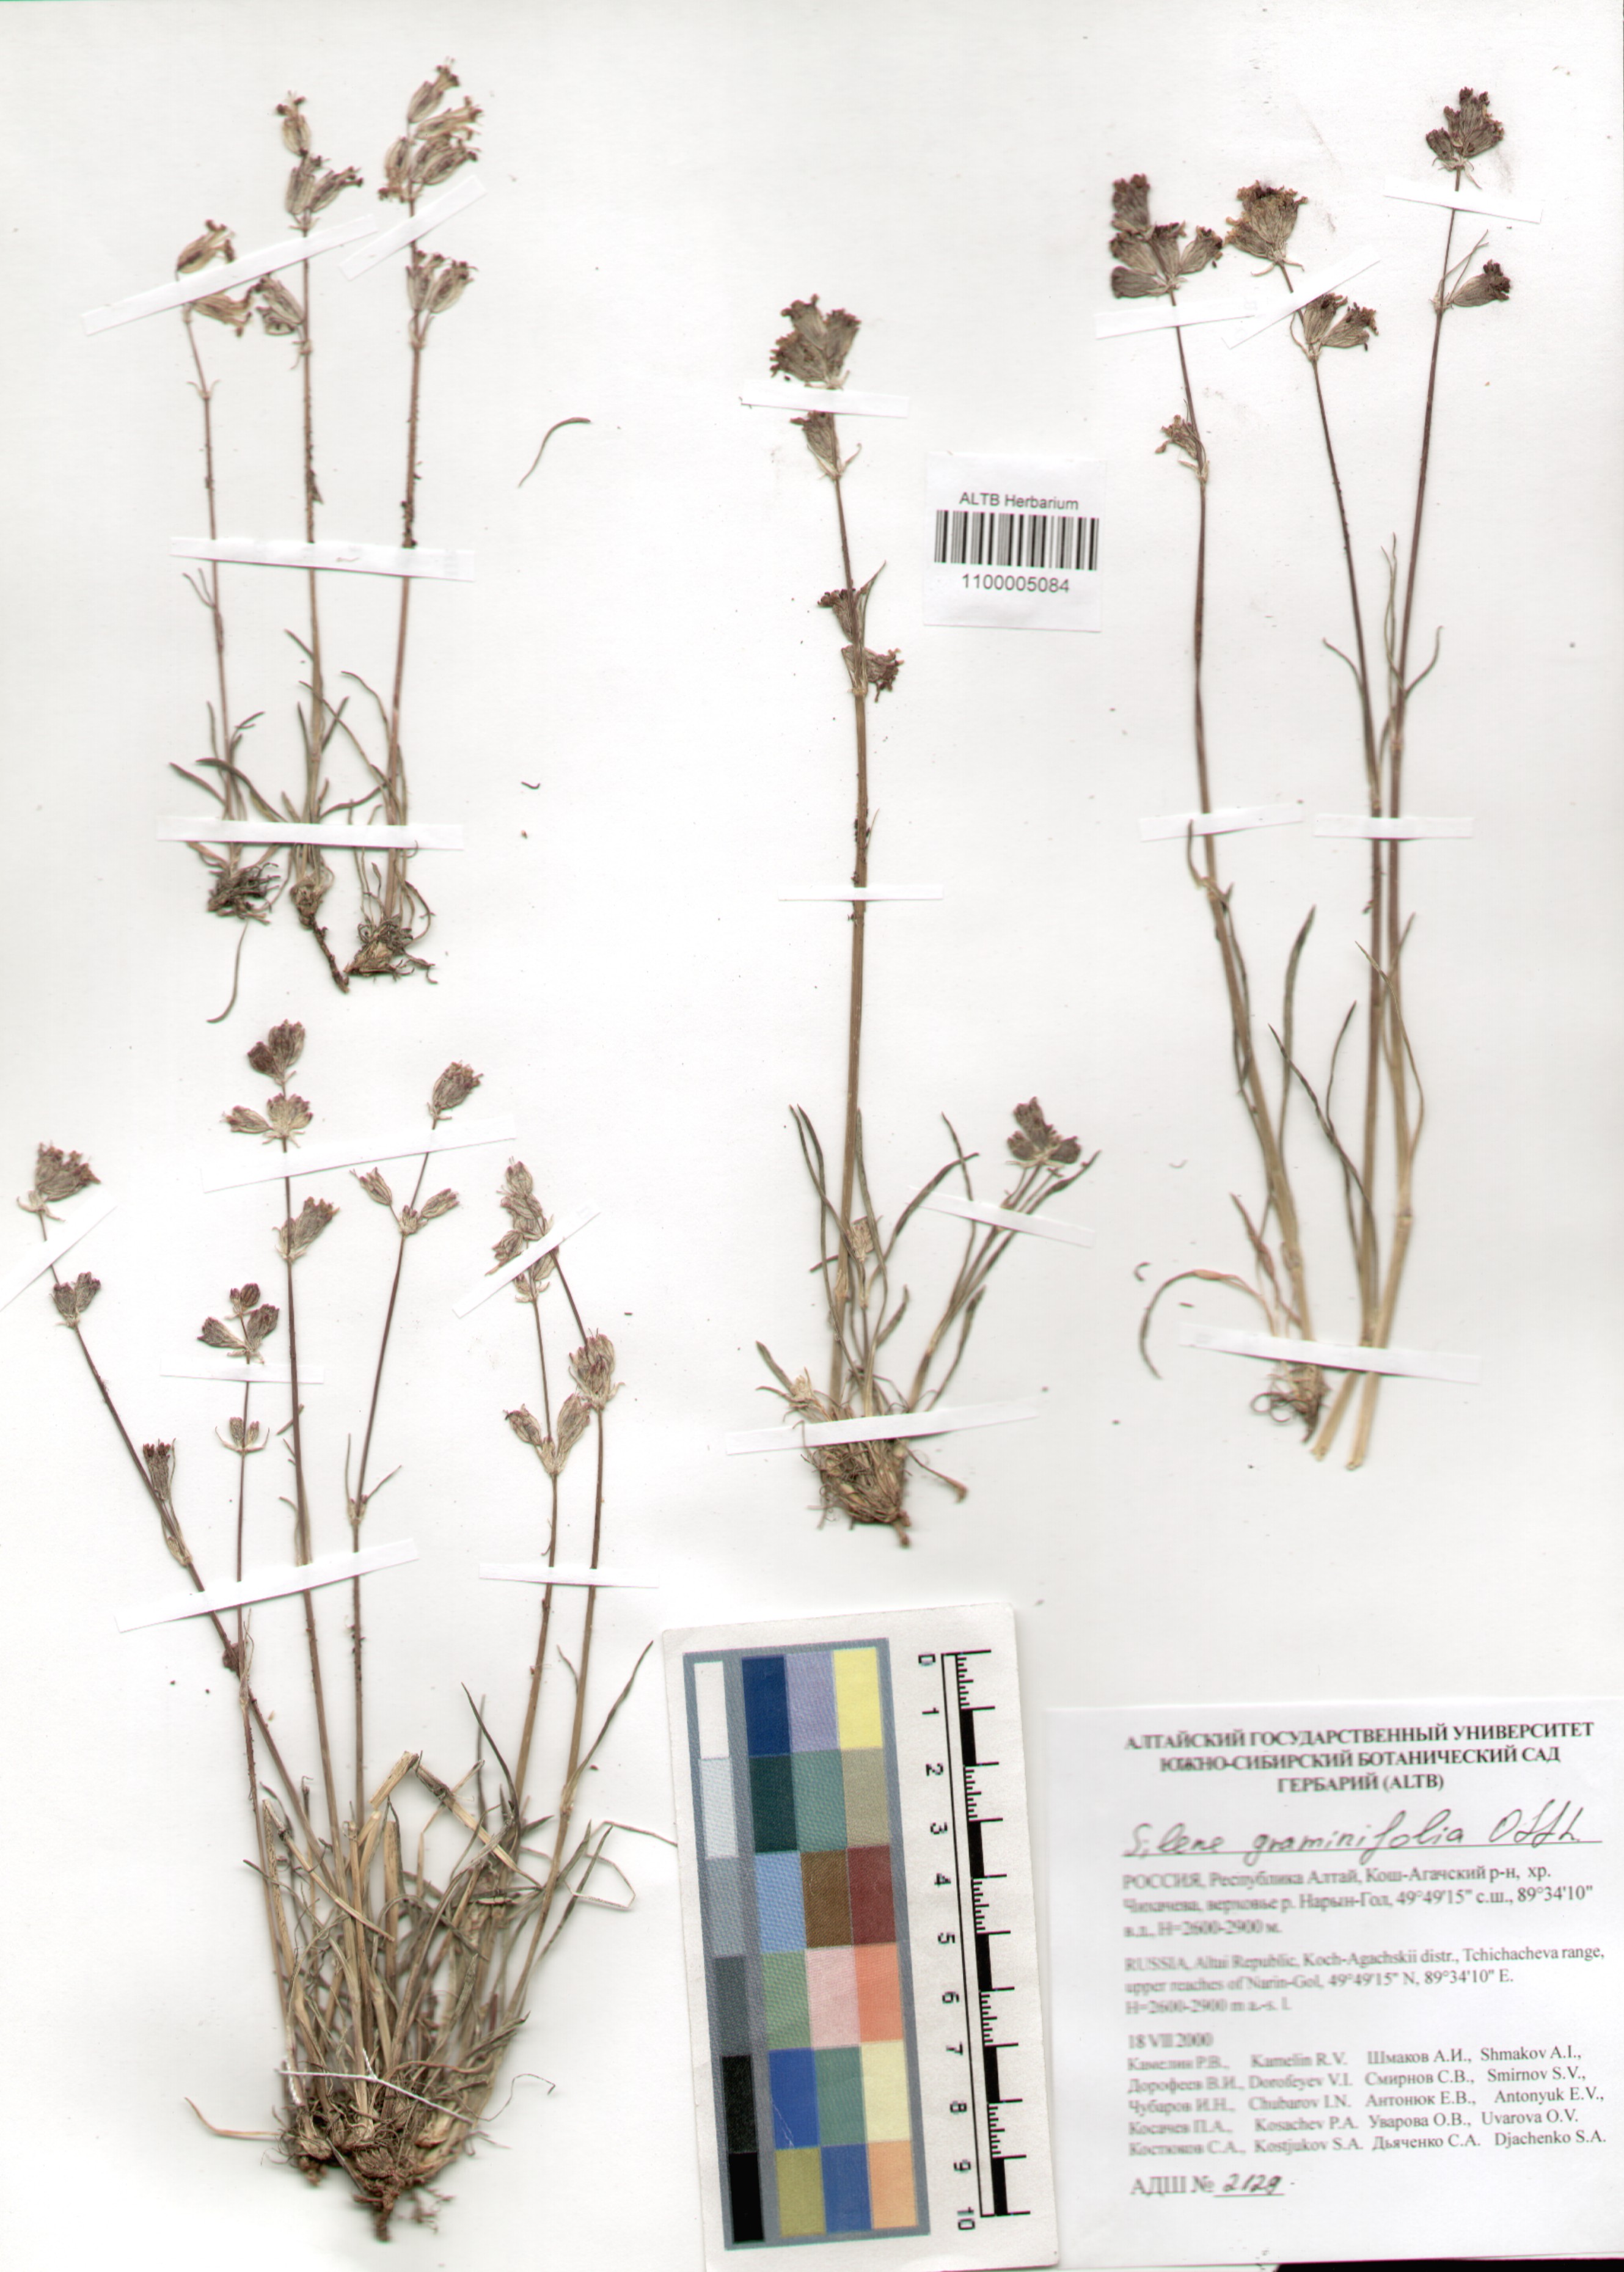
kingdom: Plantae
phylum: Tracheophyta
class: Magnoliopsida
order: Caryophyllales
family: Caryophyllaceae
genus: Silene
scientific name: Silene graminifolia
